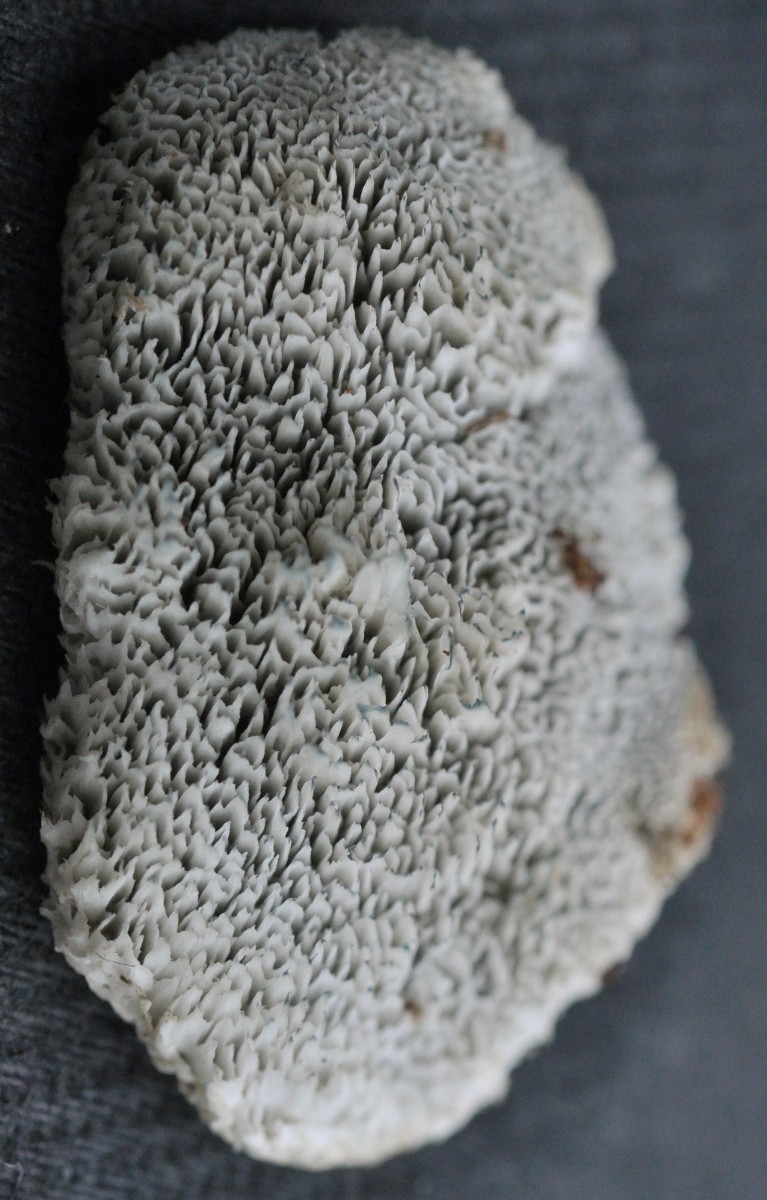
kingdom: Fungi
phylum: Basidiomycota
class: Agaricomycetes
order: Polyporales
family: Dacryobolaceae
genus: Postia
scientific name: Postia
